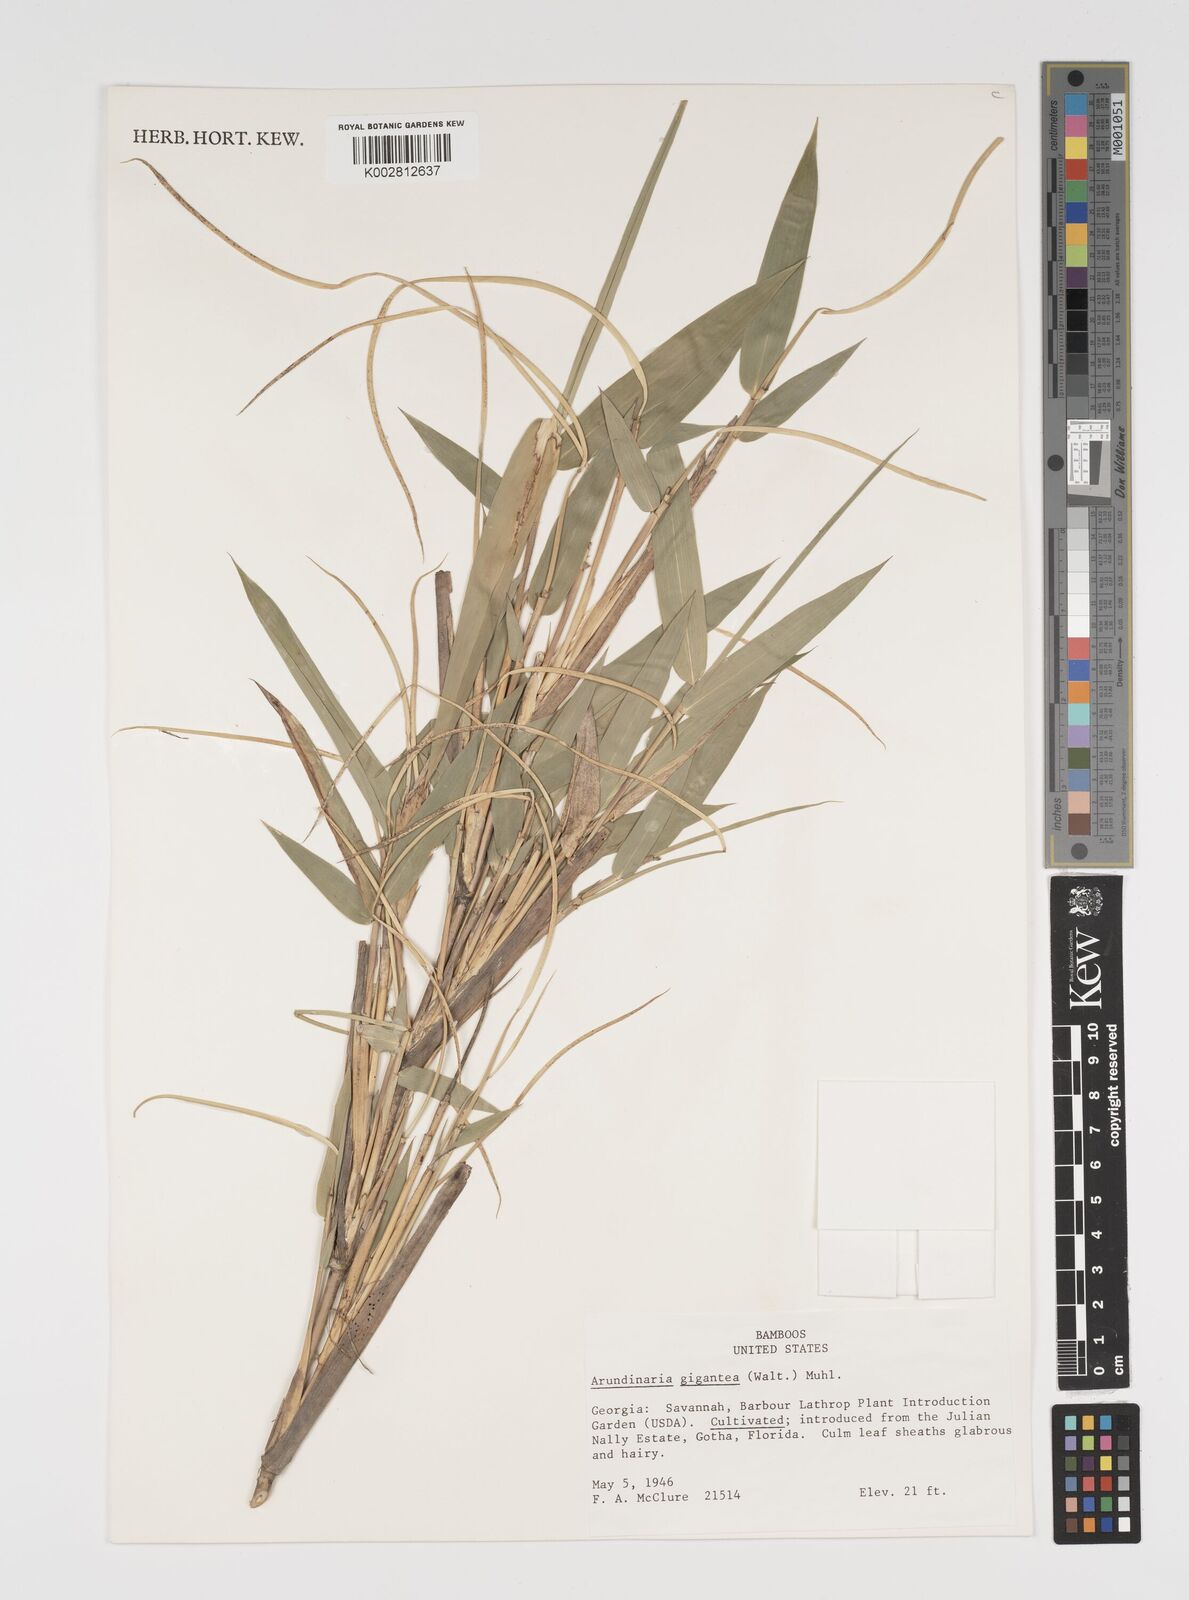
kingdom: Plantae
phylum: Tracheophyta
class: Liliopsida
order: Poales
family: Poaceae
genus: Arundinaria
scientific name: Arundinaria
